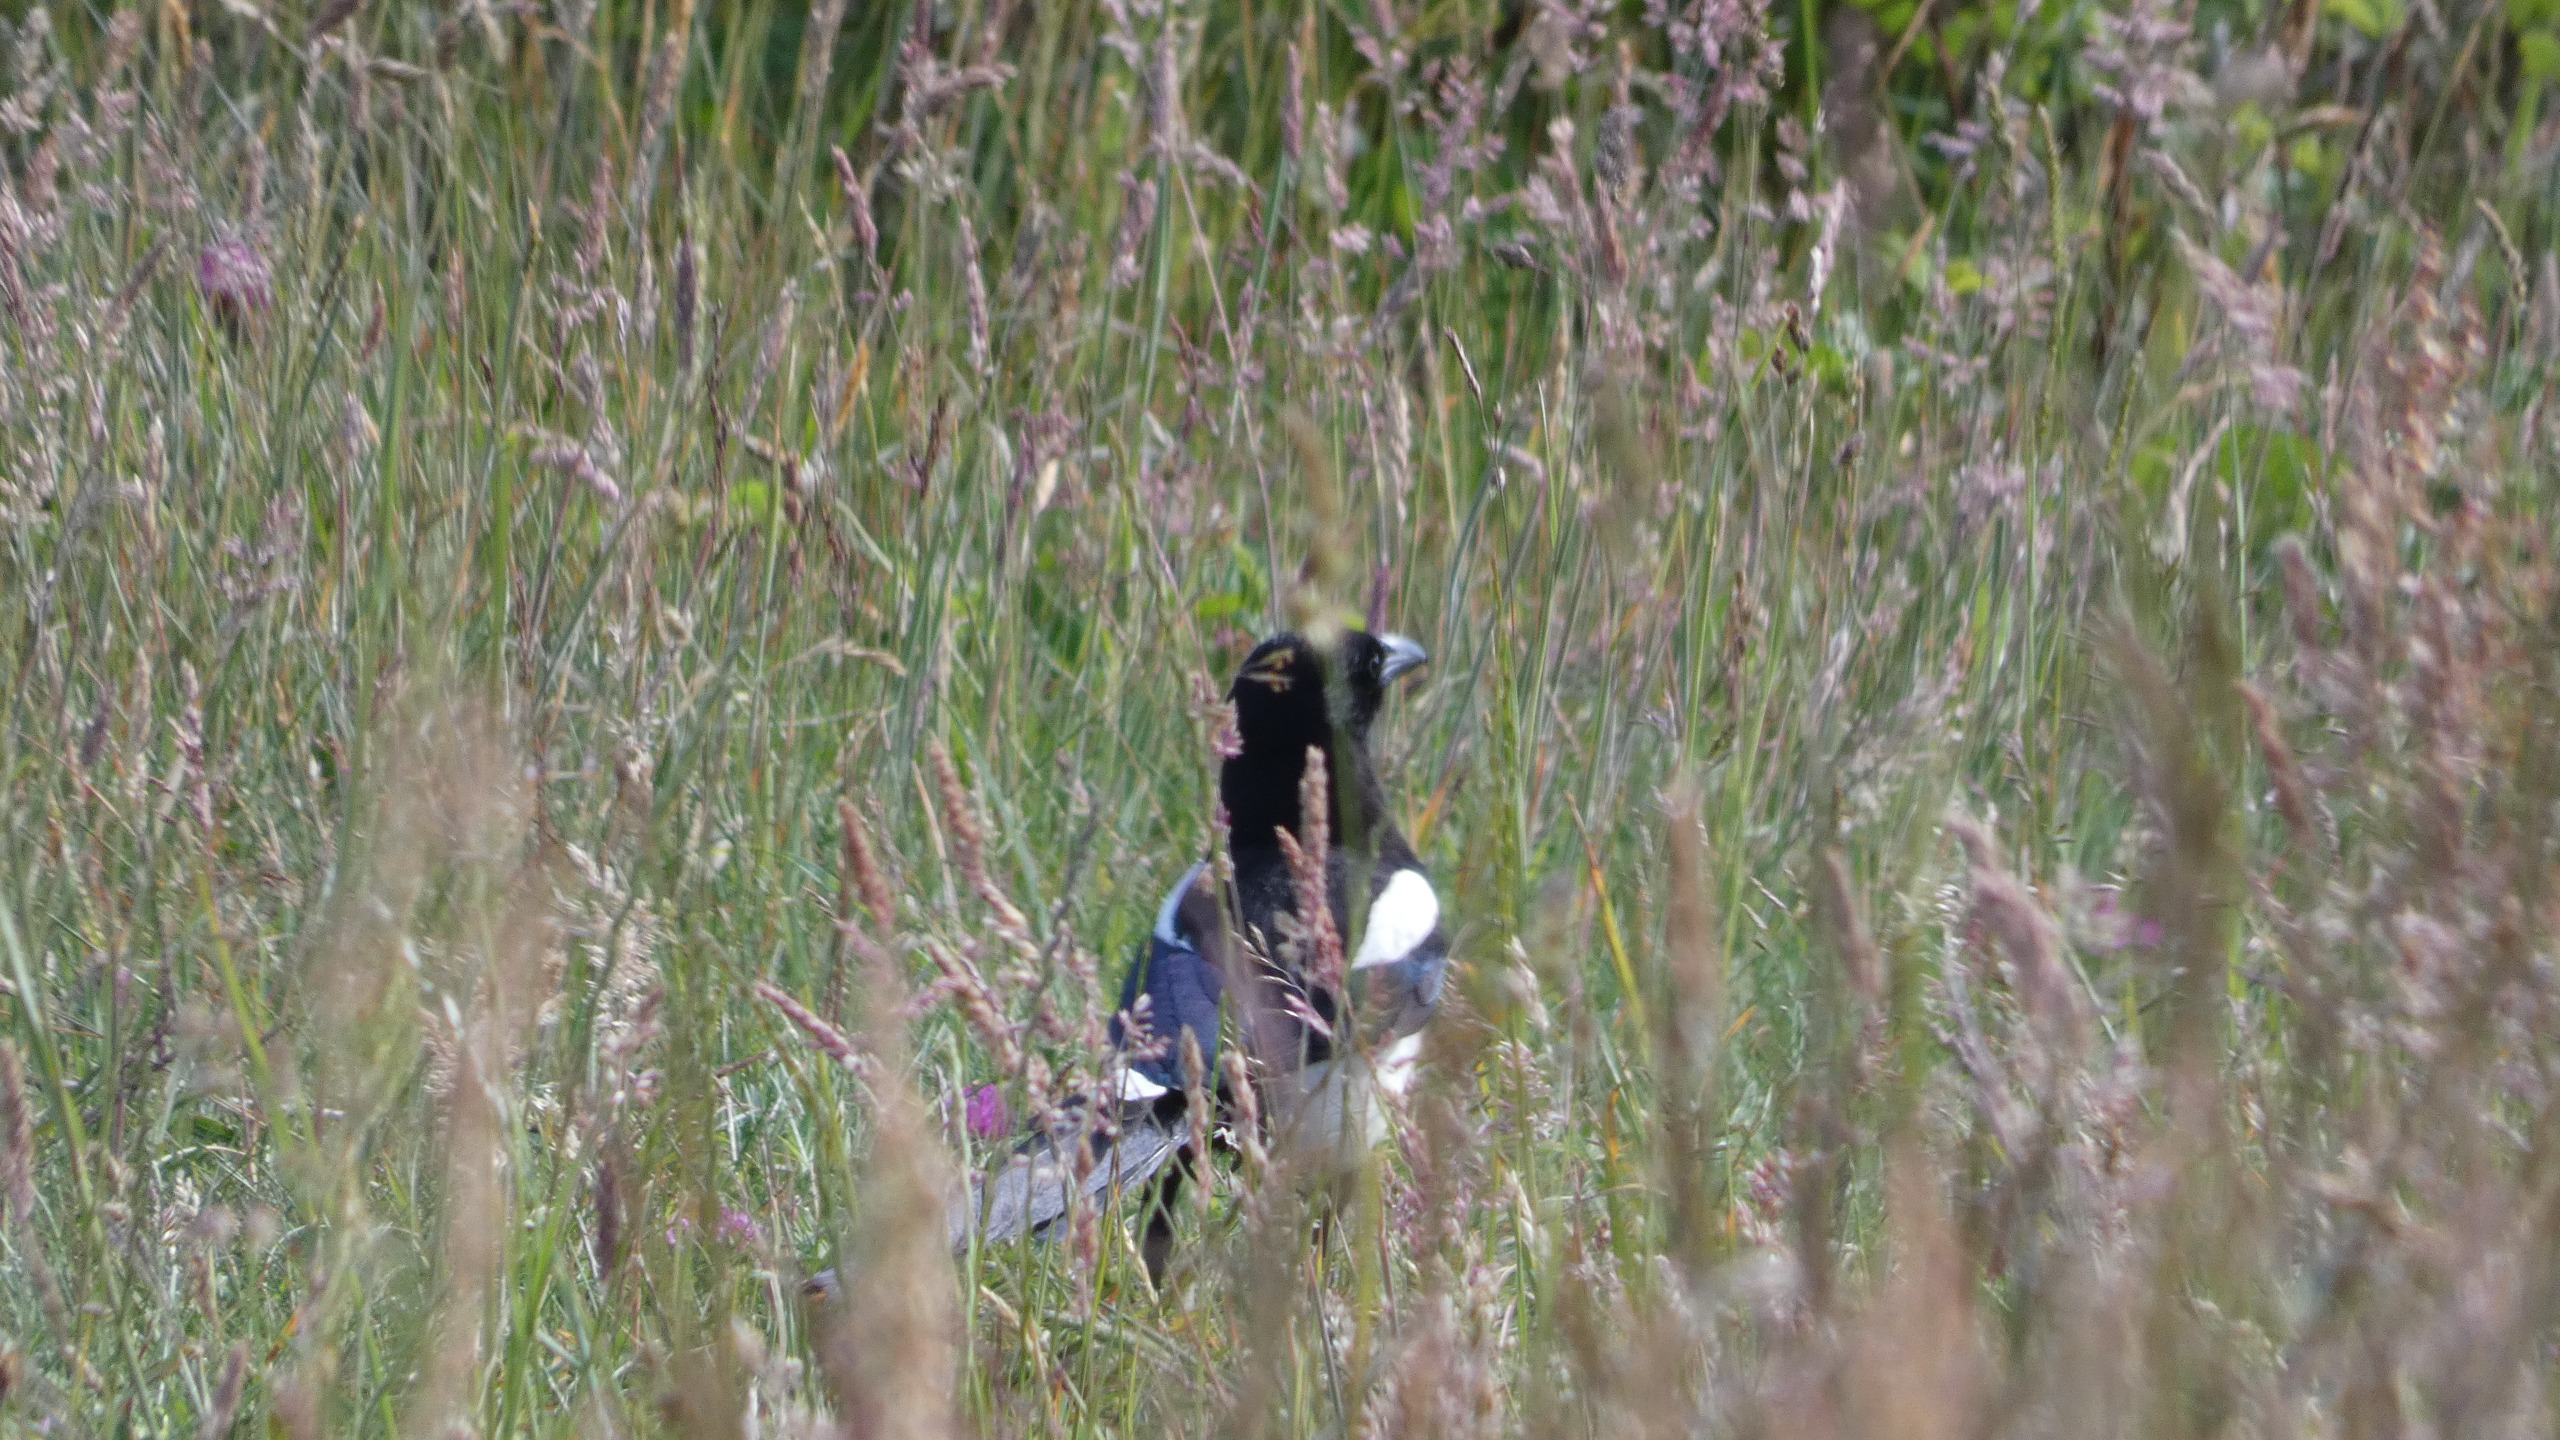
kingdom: Animalia
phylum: Chordata
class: Aves
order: Passeriformes
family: Corvidae
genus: Pica
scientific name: Pica pica
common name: Husskade
